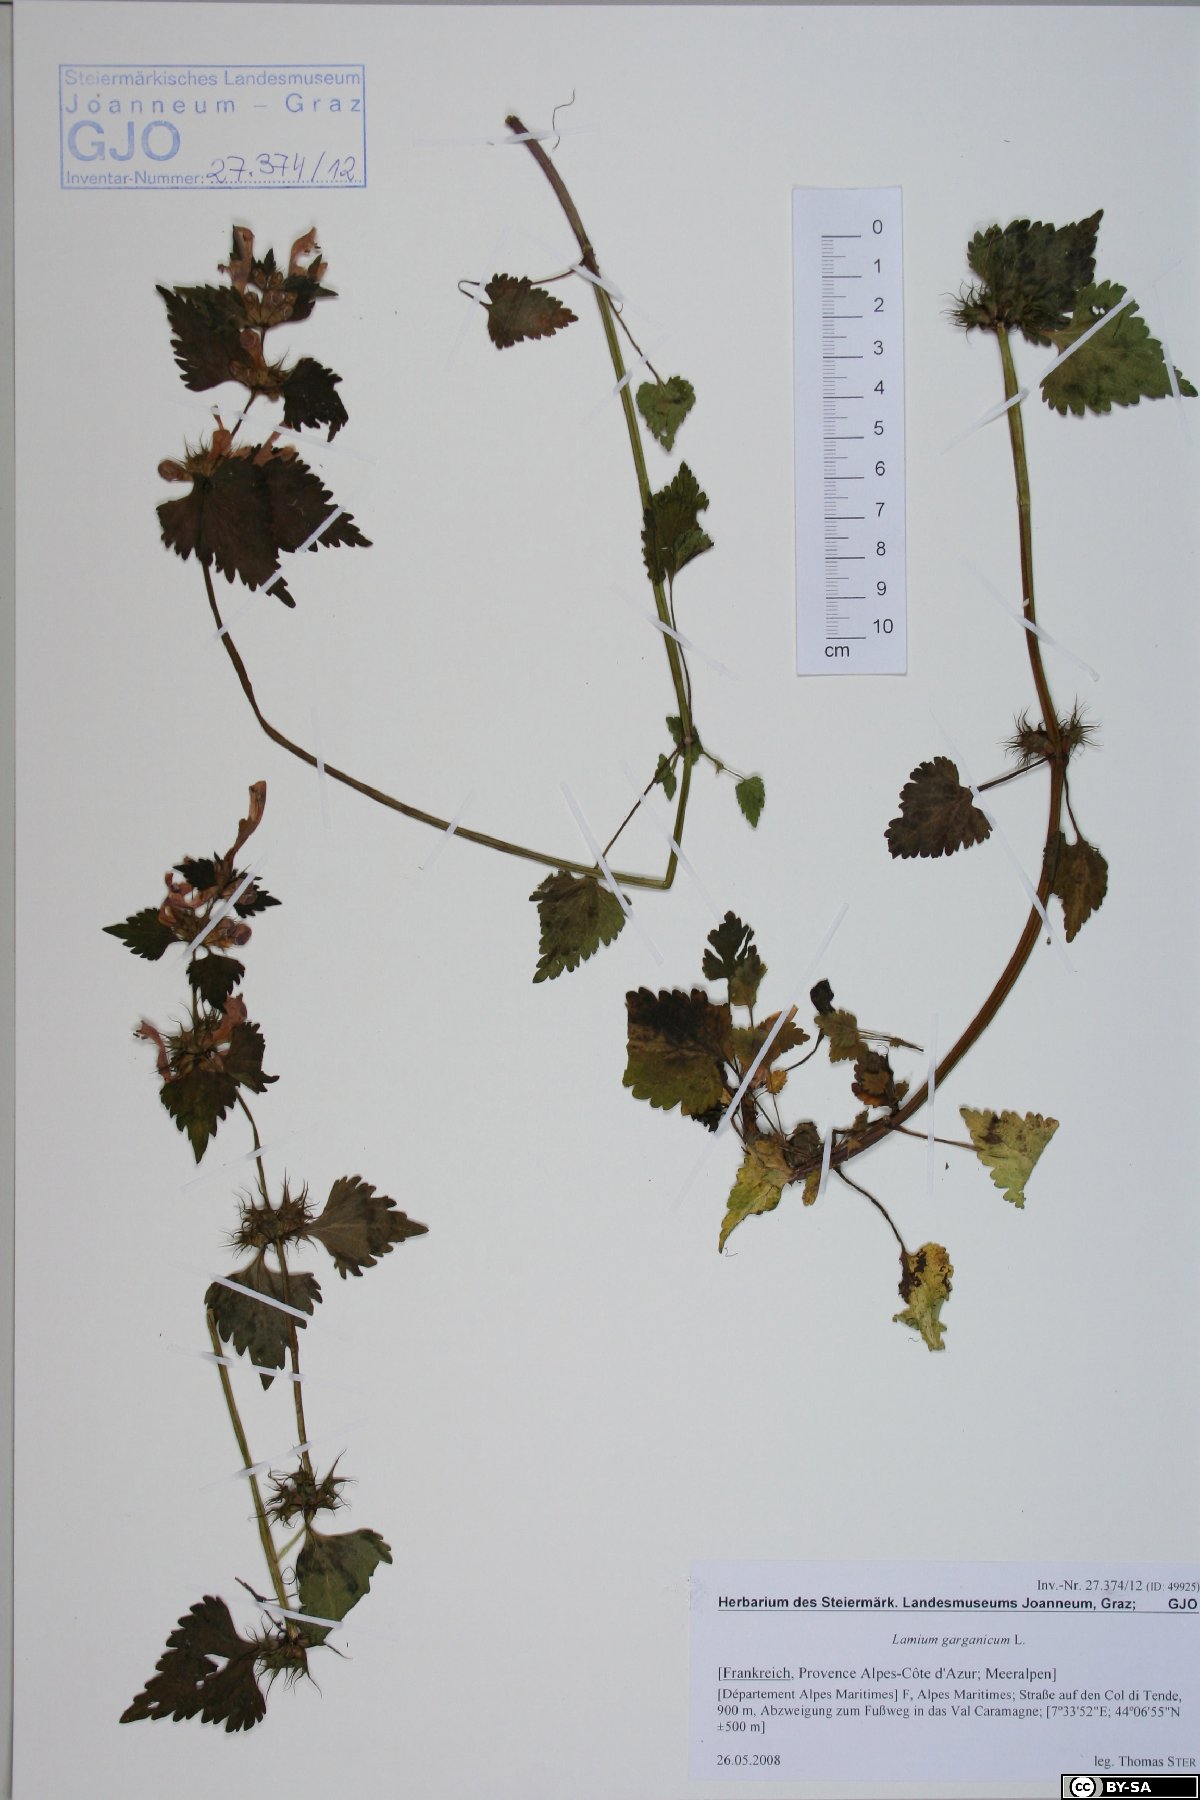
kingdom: Plantae
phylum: Tracheophyta
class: Magnoliopsida
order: Lamiales
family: Lamiaceae
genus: Lamium
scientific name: Lamium garganicum
